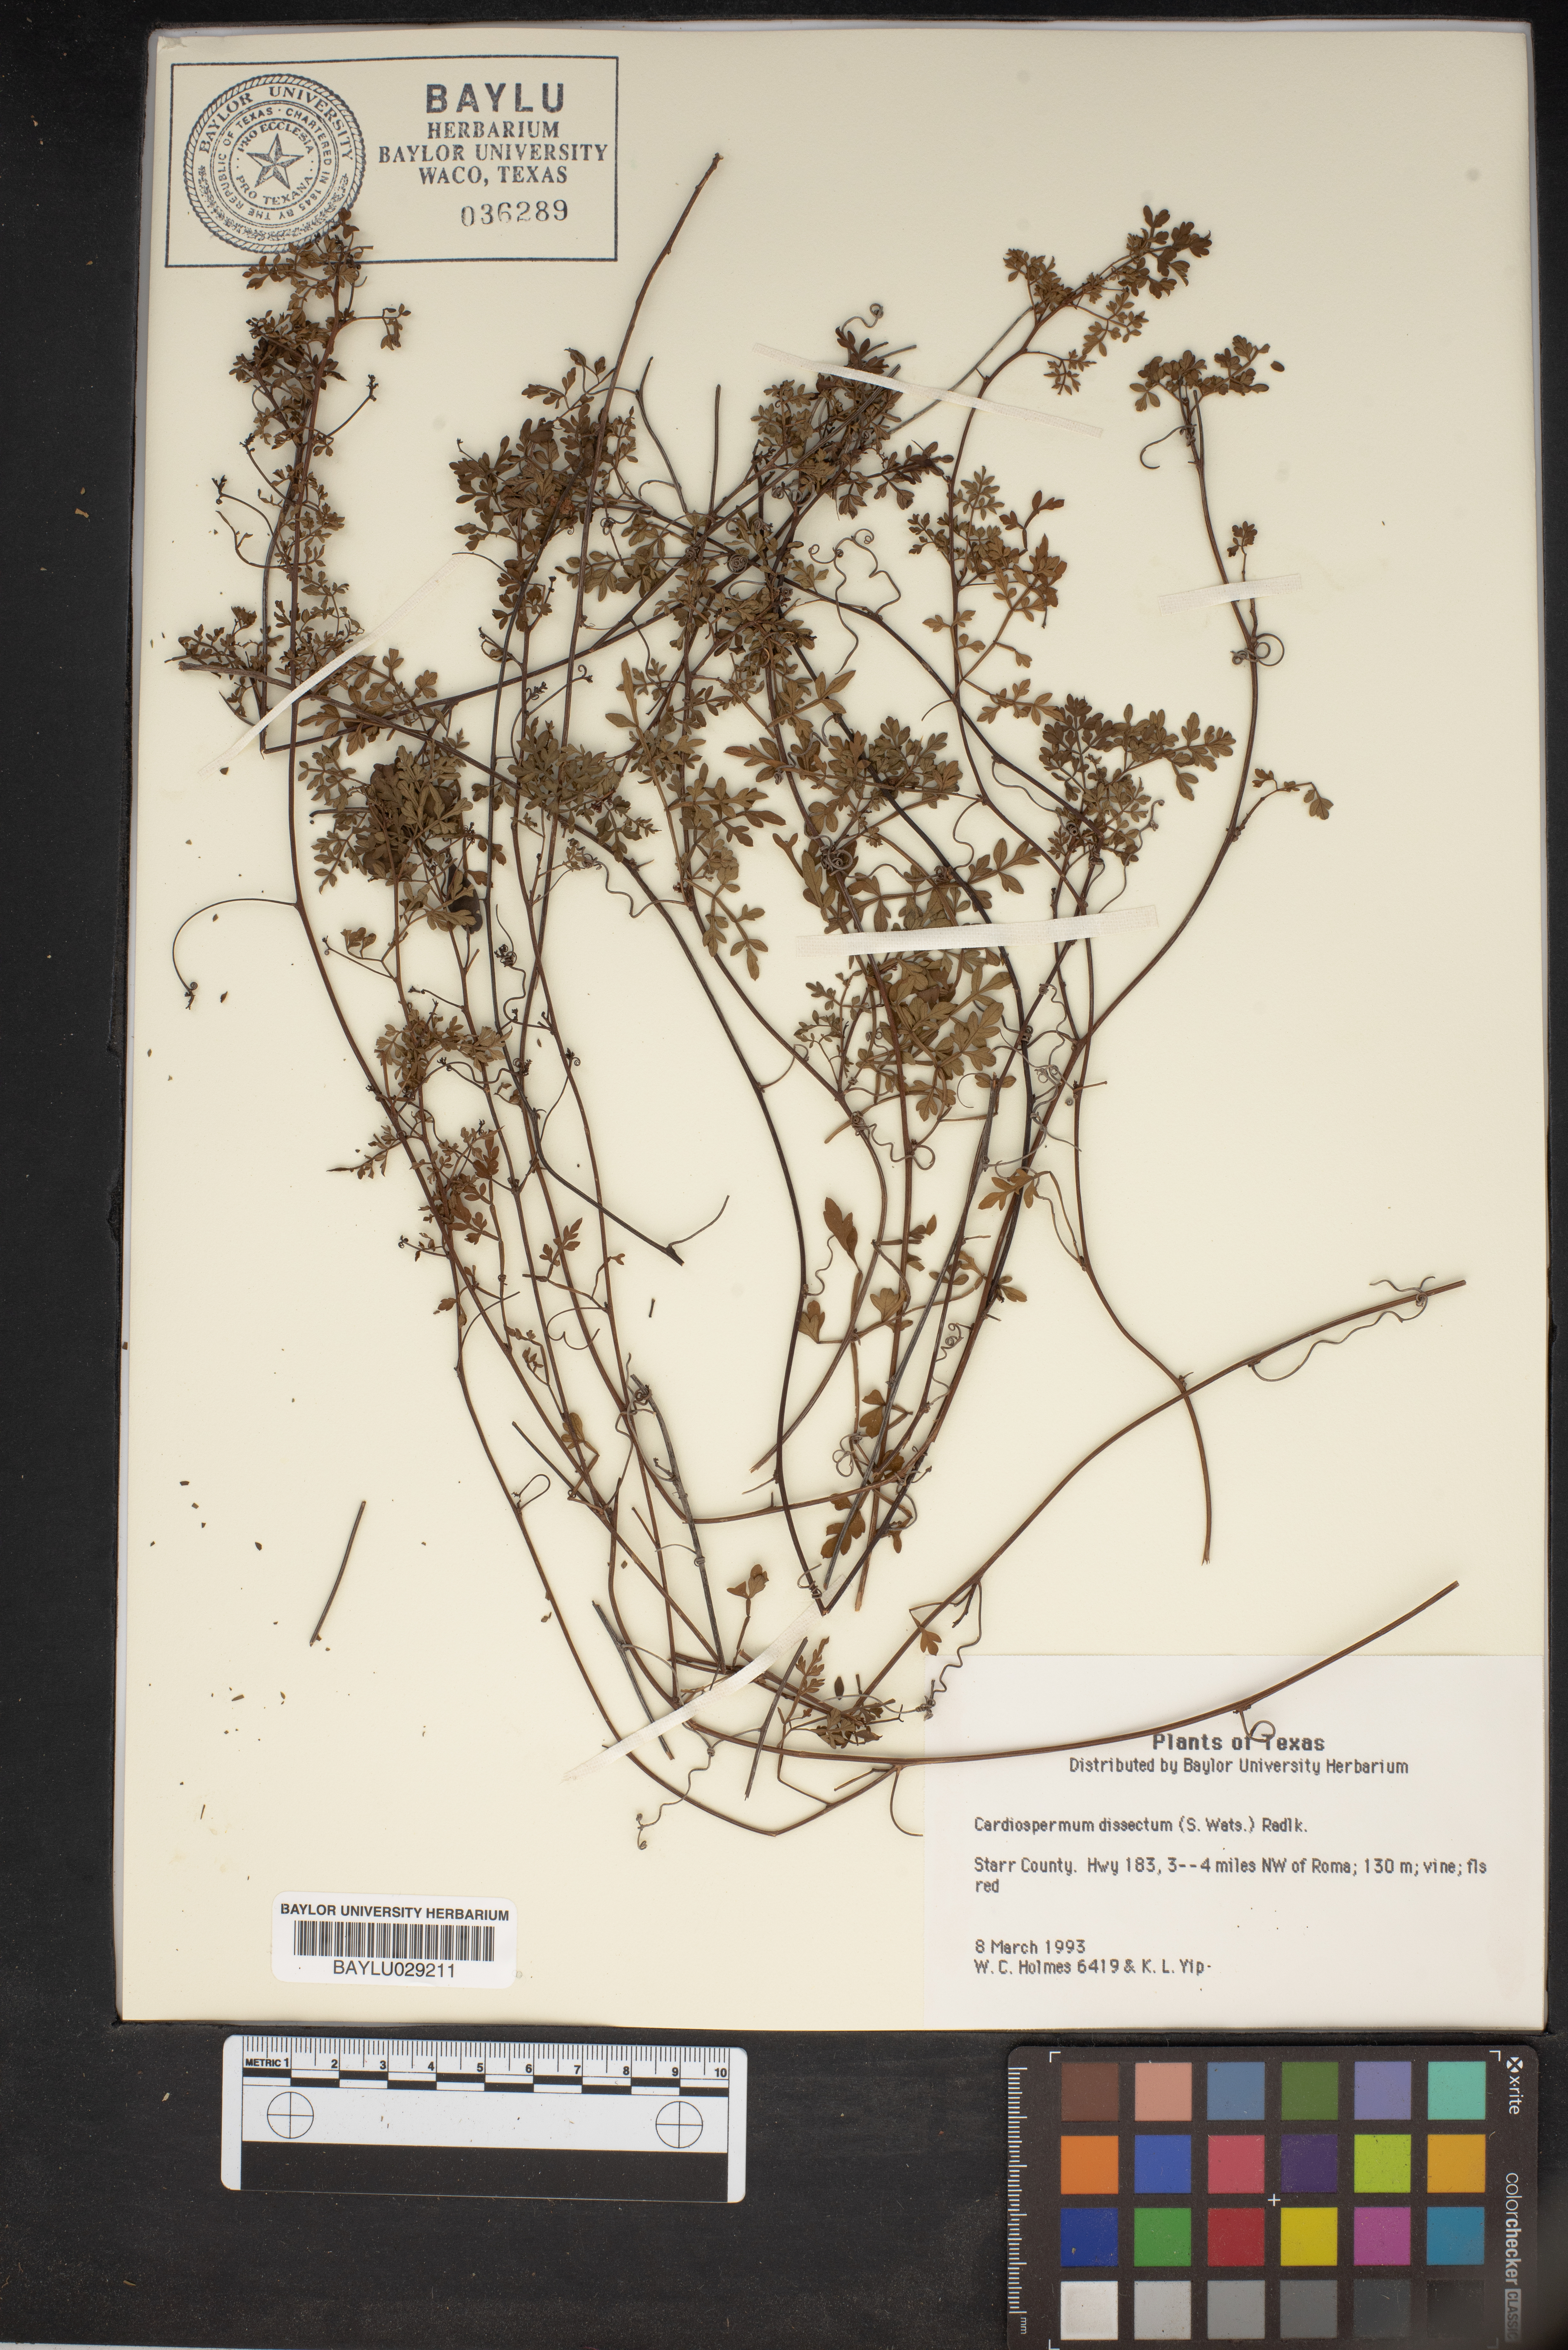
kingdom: Plantae
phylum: Tracheophyta
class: Magnoliopsida
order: Sapindales
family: Sapindaceae
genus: Serjania
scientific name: Serjania dissecta
